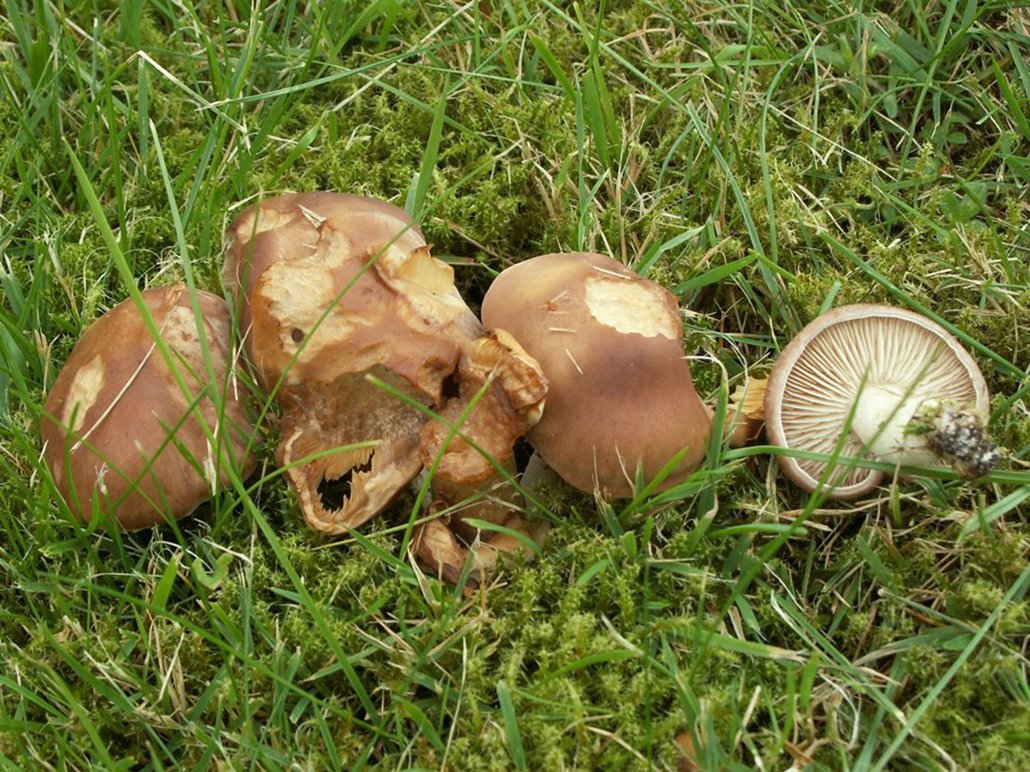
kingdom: Fungi
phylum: Basidiomycota
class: Agaricomycetes
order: Agaricales
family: Lyophyllaceae
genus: Gerhardtia
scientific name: Gerhardtia borealis
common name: rosabrun fagerhat
